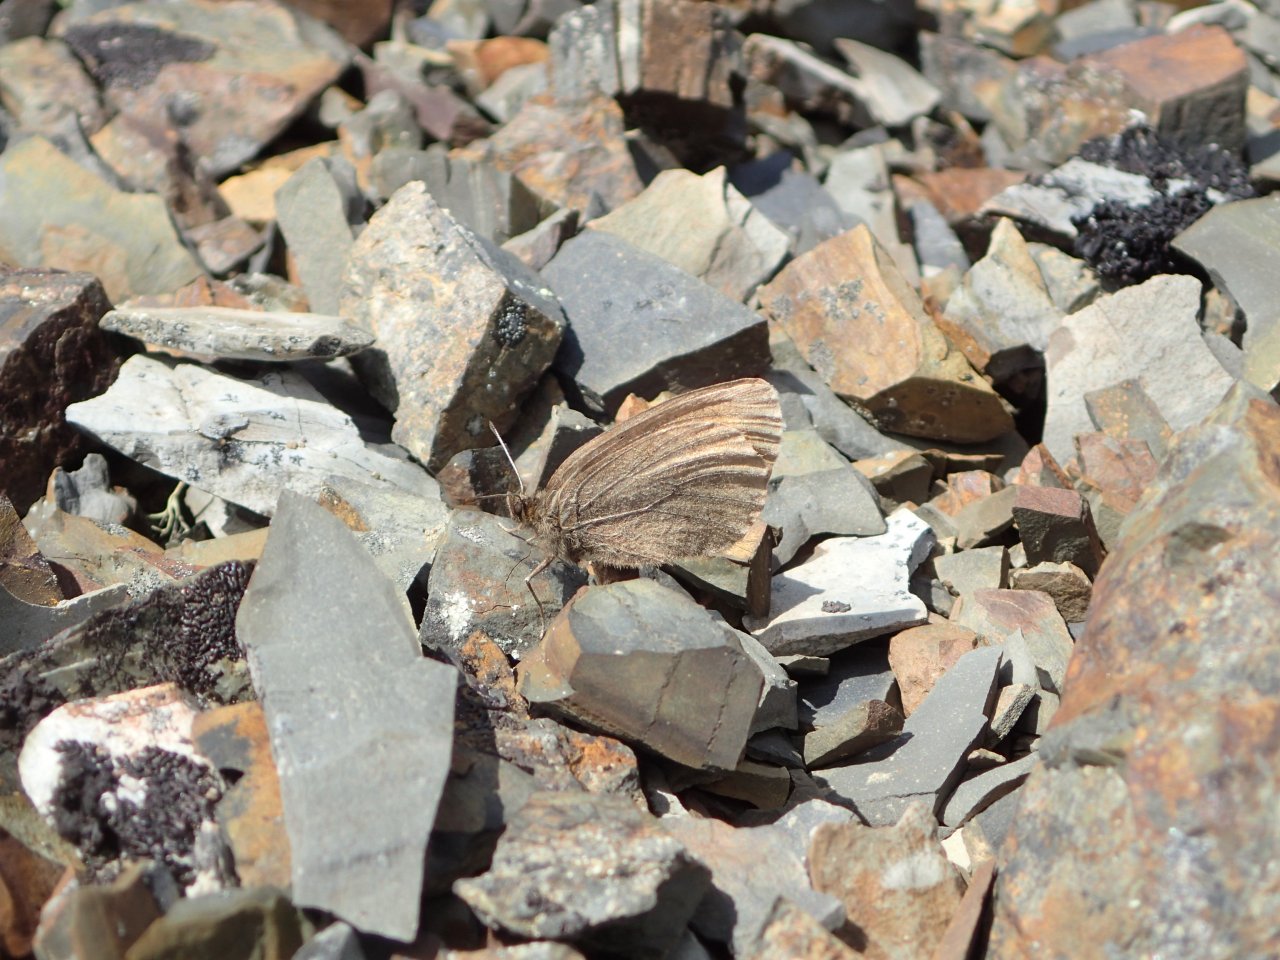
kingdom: Animalia
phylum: Arthropoda
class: Insecta
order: Lepidoptera
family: Nymphalidae
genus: Erebia
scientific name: Erebia occulta
